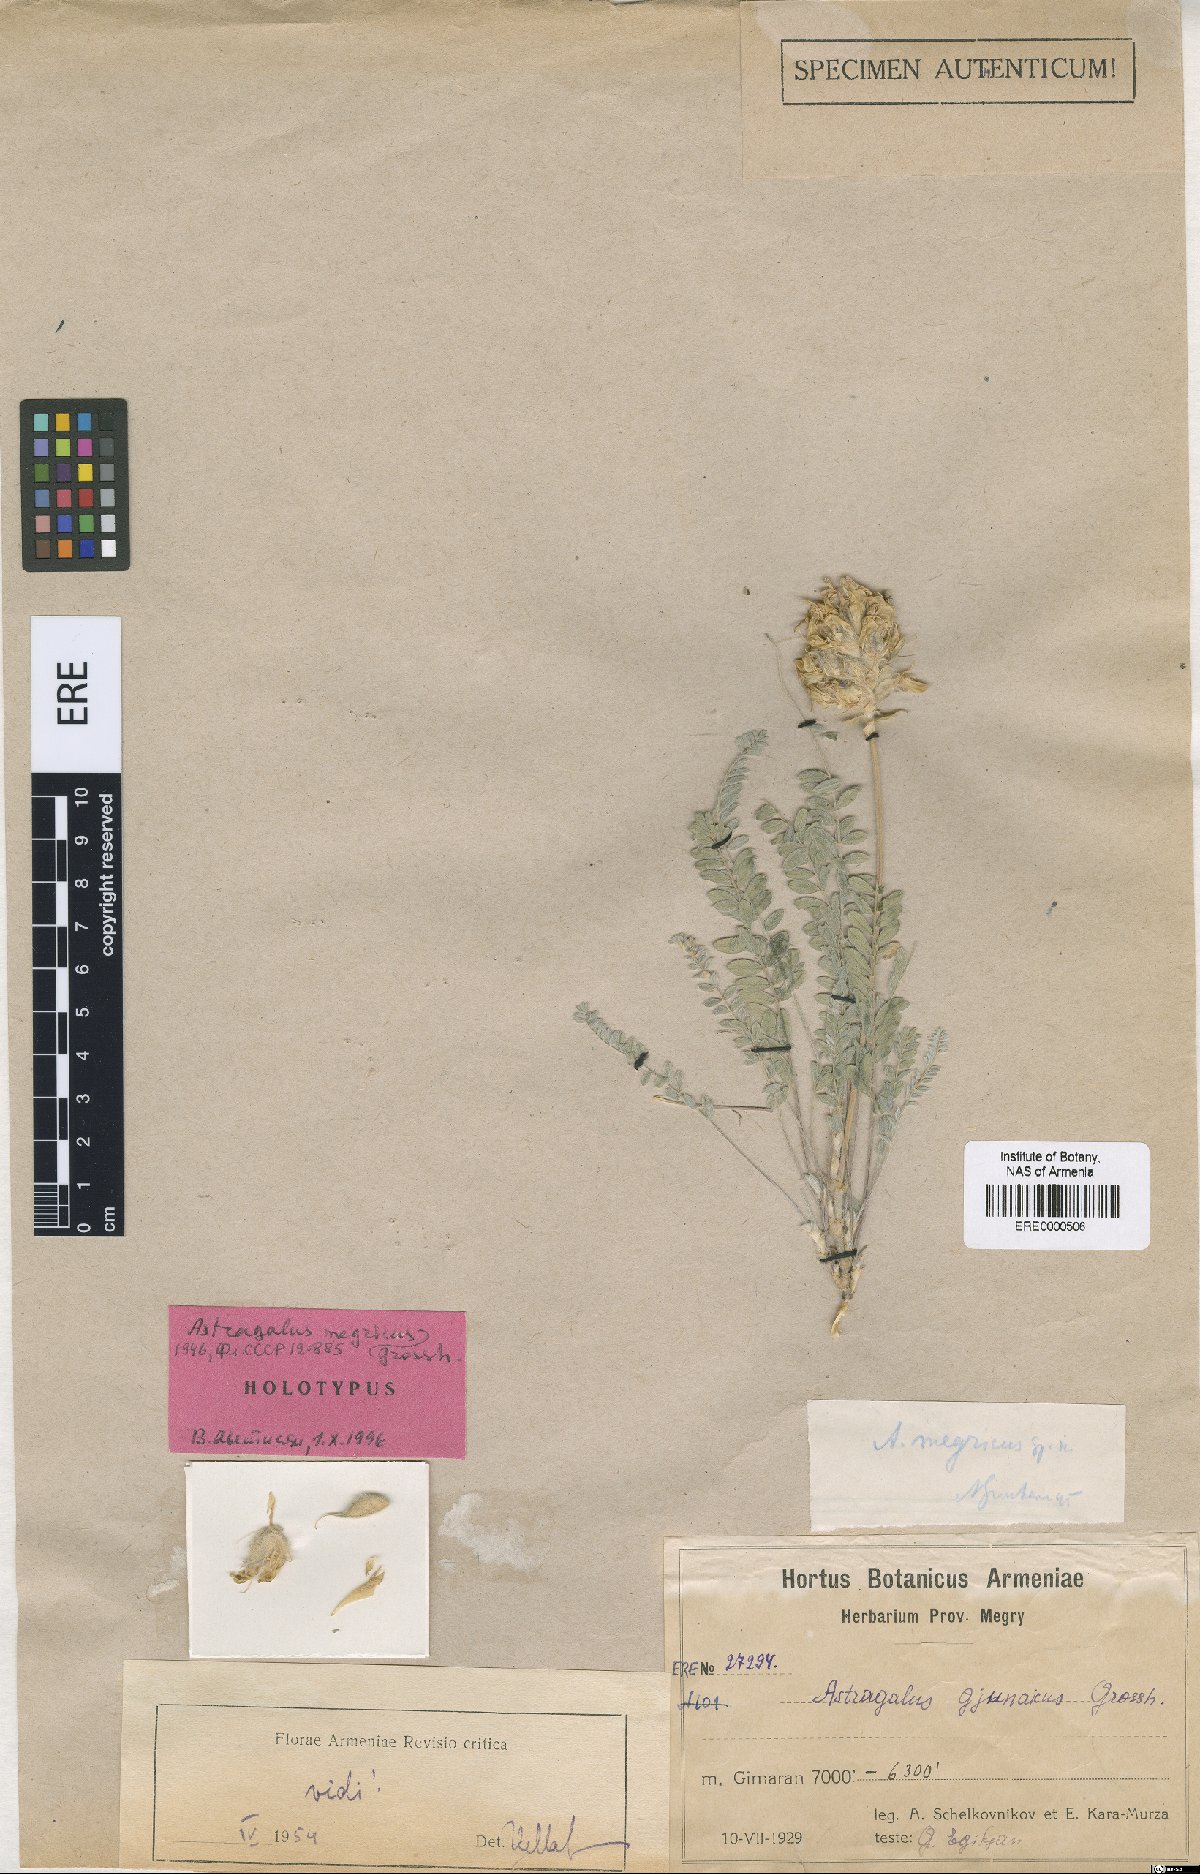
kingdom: Plantae
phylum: Tracheophyta
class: Magnoliopsida
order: Fabales
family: Fabaceae
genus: Astragalus
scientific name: Astragalus megricus
